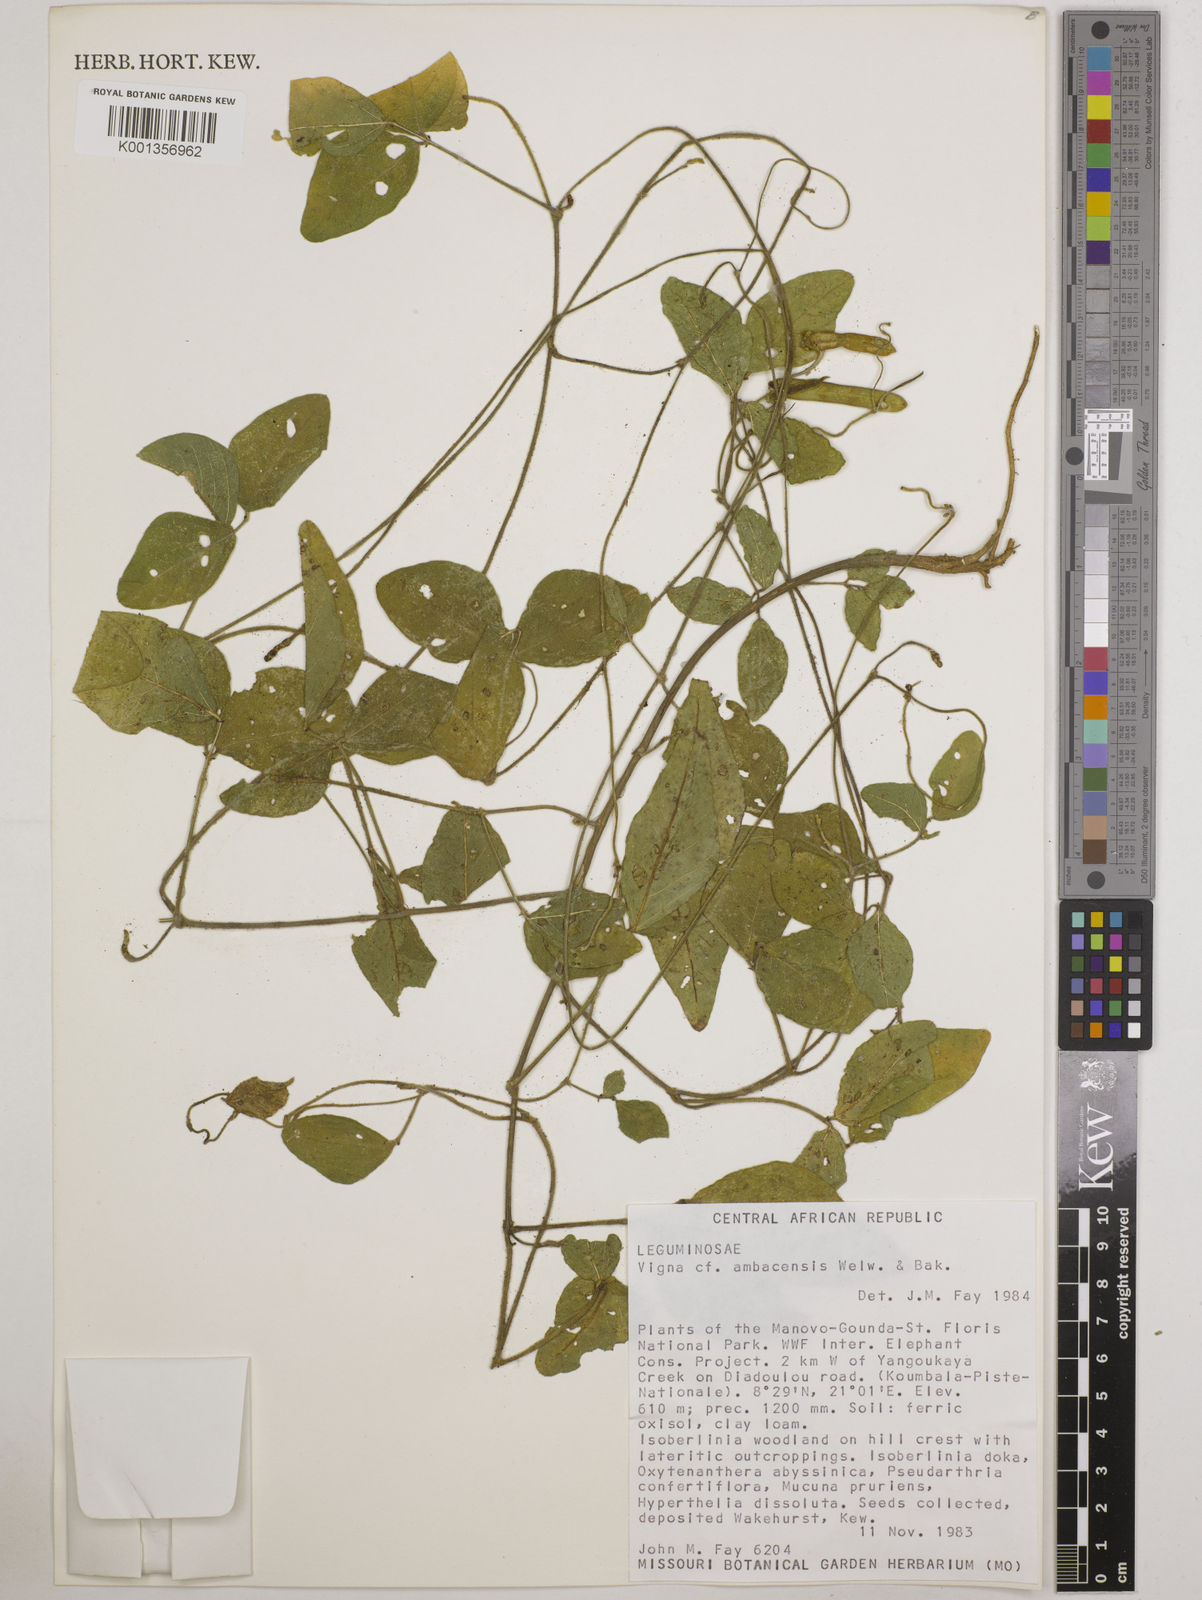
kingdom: Plantae
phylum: Tracheophyta
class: Magnoliopsida
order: Fabales
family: Fabaceae
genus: Vigna
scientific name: Vigna ambacensis
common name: Tsarkiyan zomo
